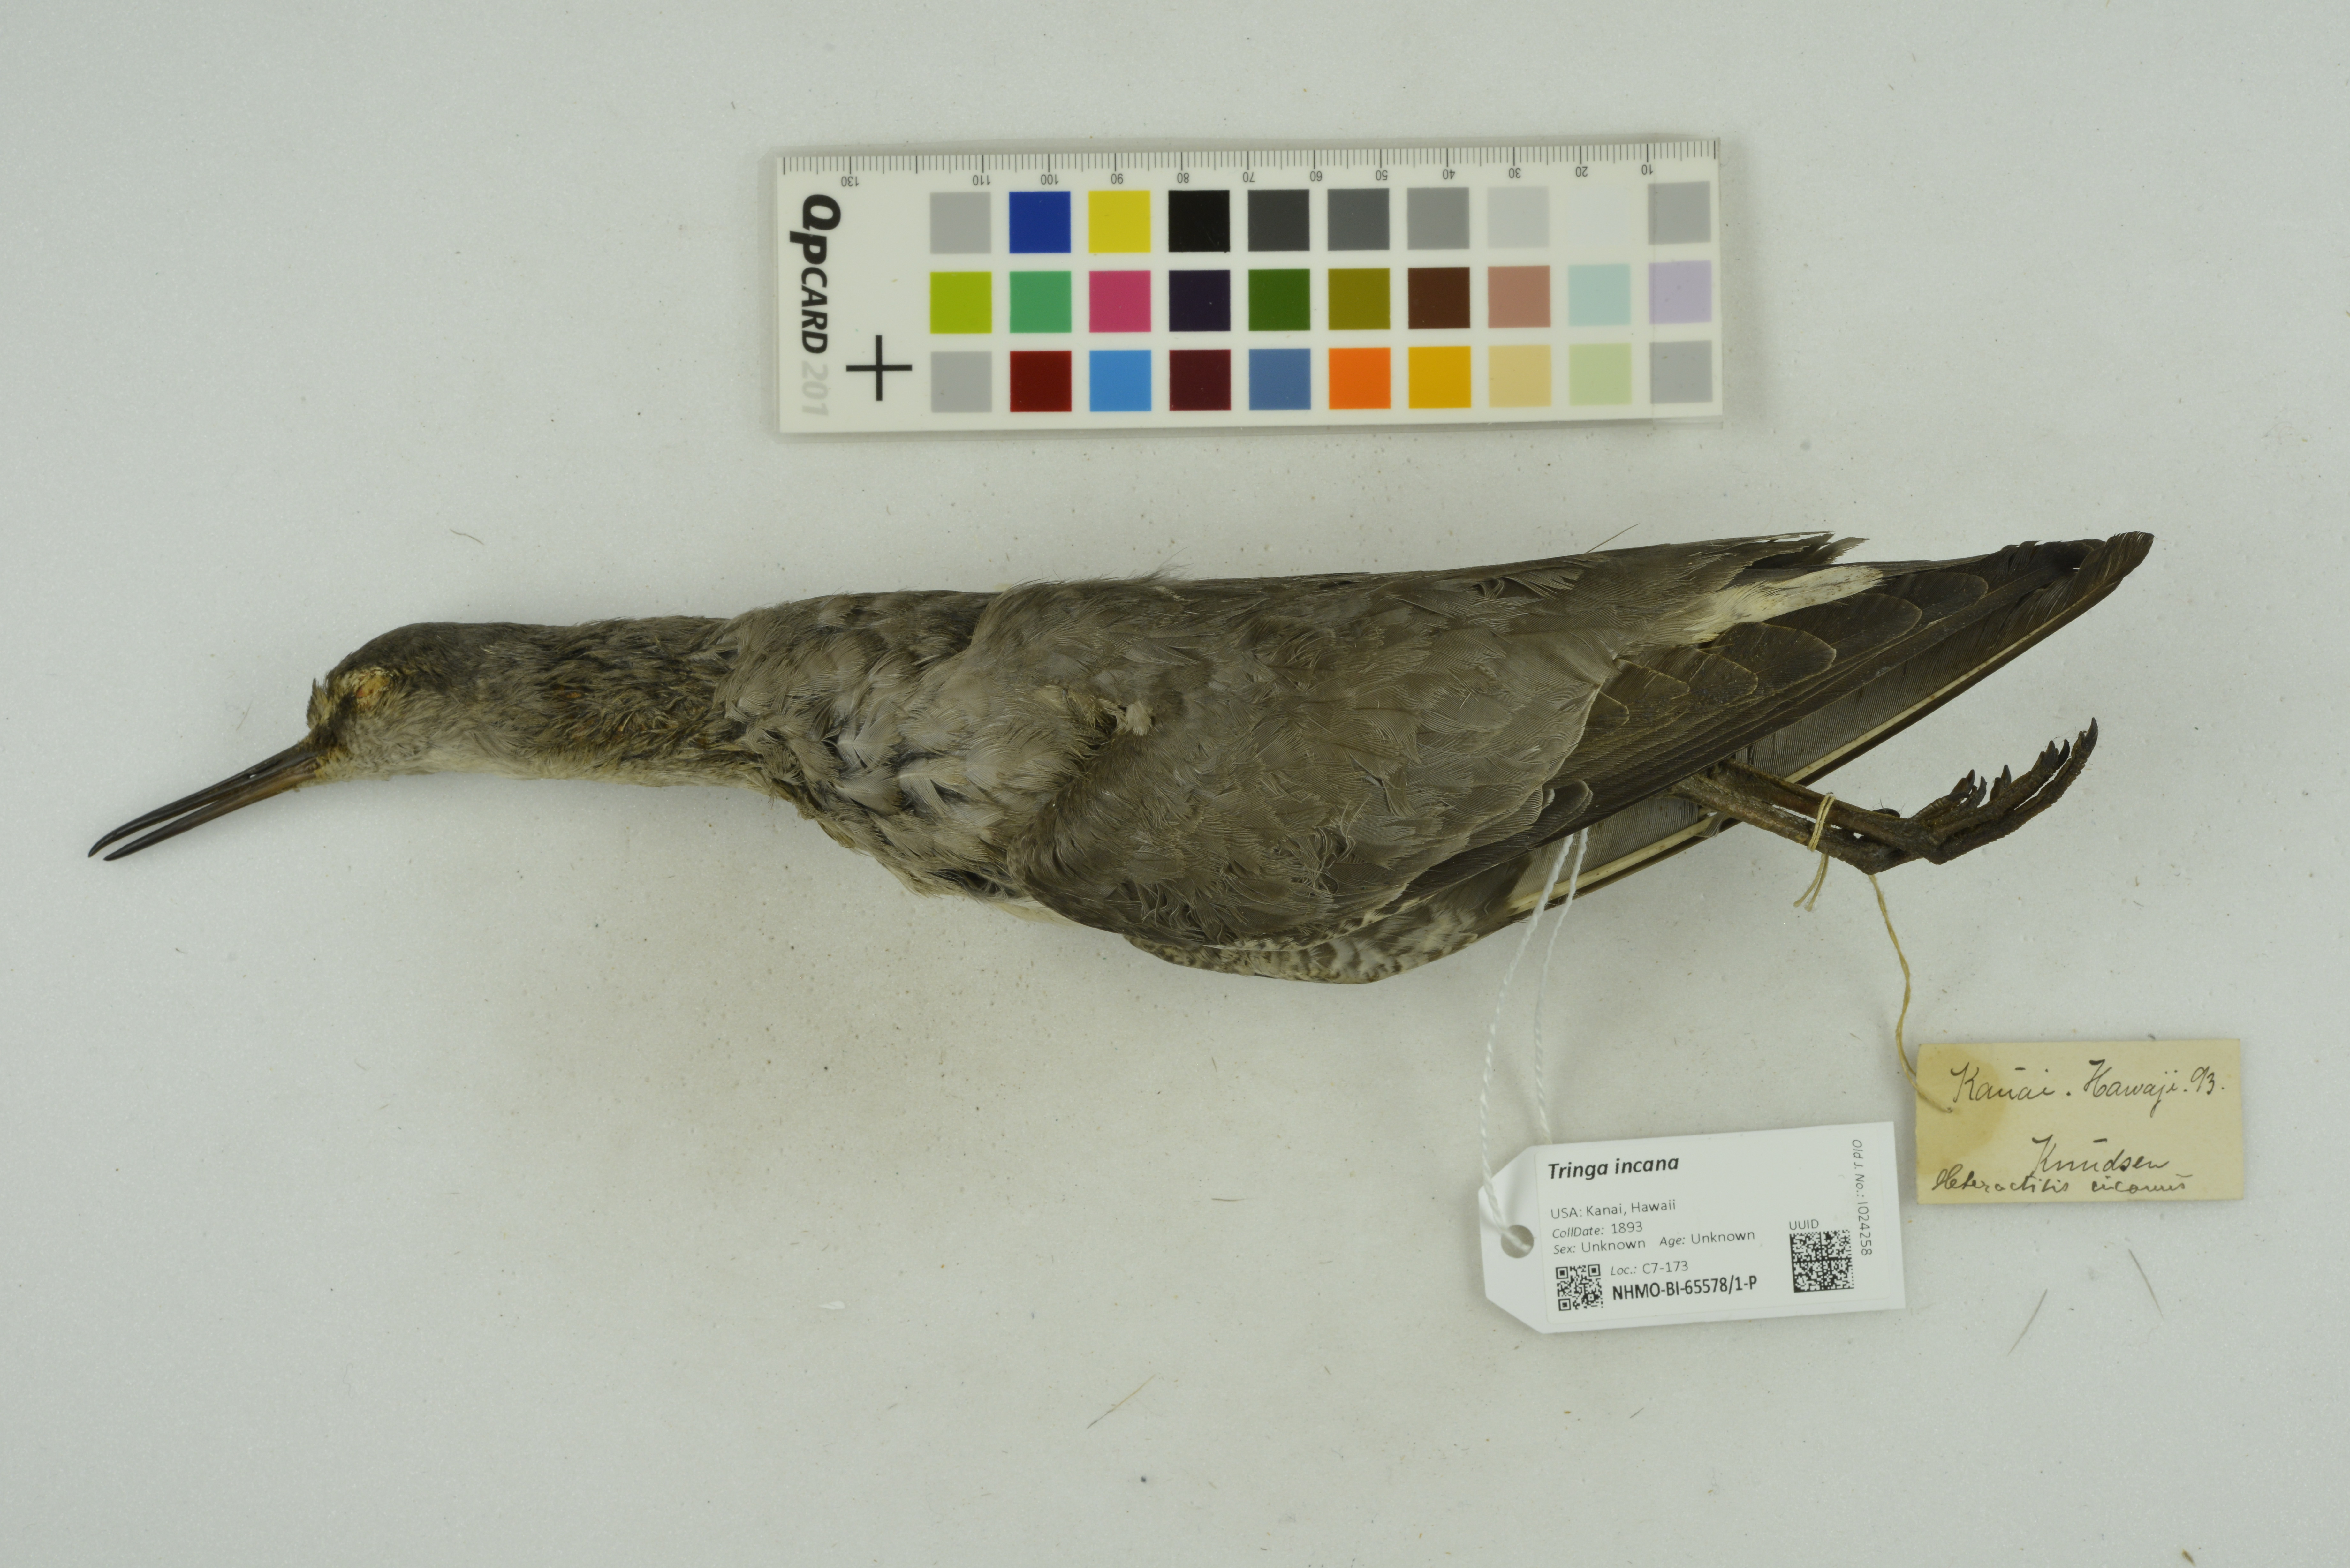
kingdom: Animalia
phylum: Chordata
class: Aves
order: Charadriiformes
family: Scolopacidae
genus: Tringa
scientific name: Tringa incana
